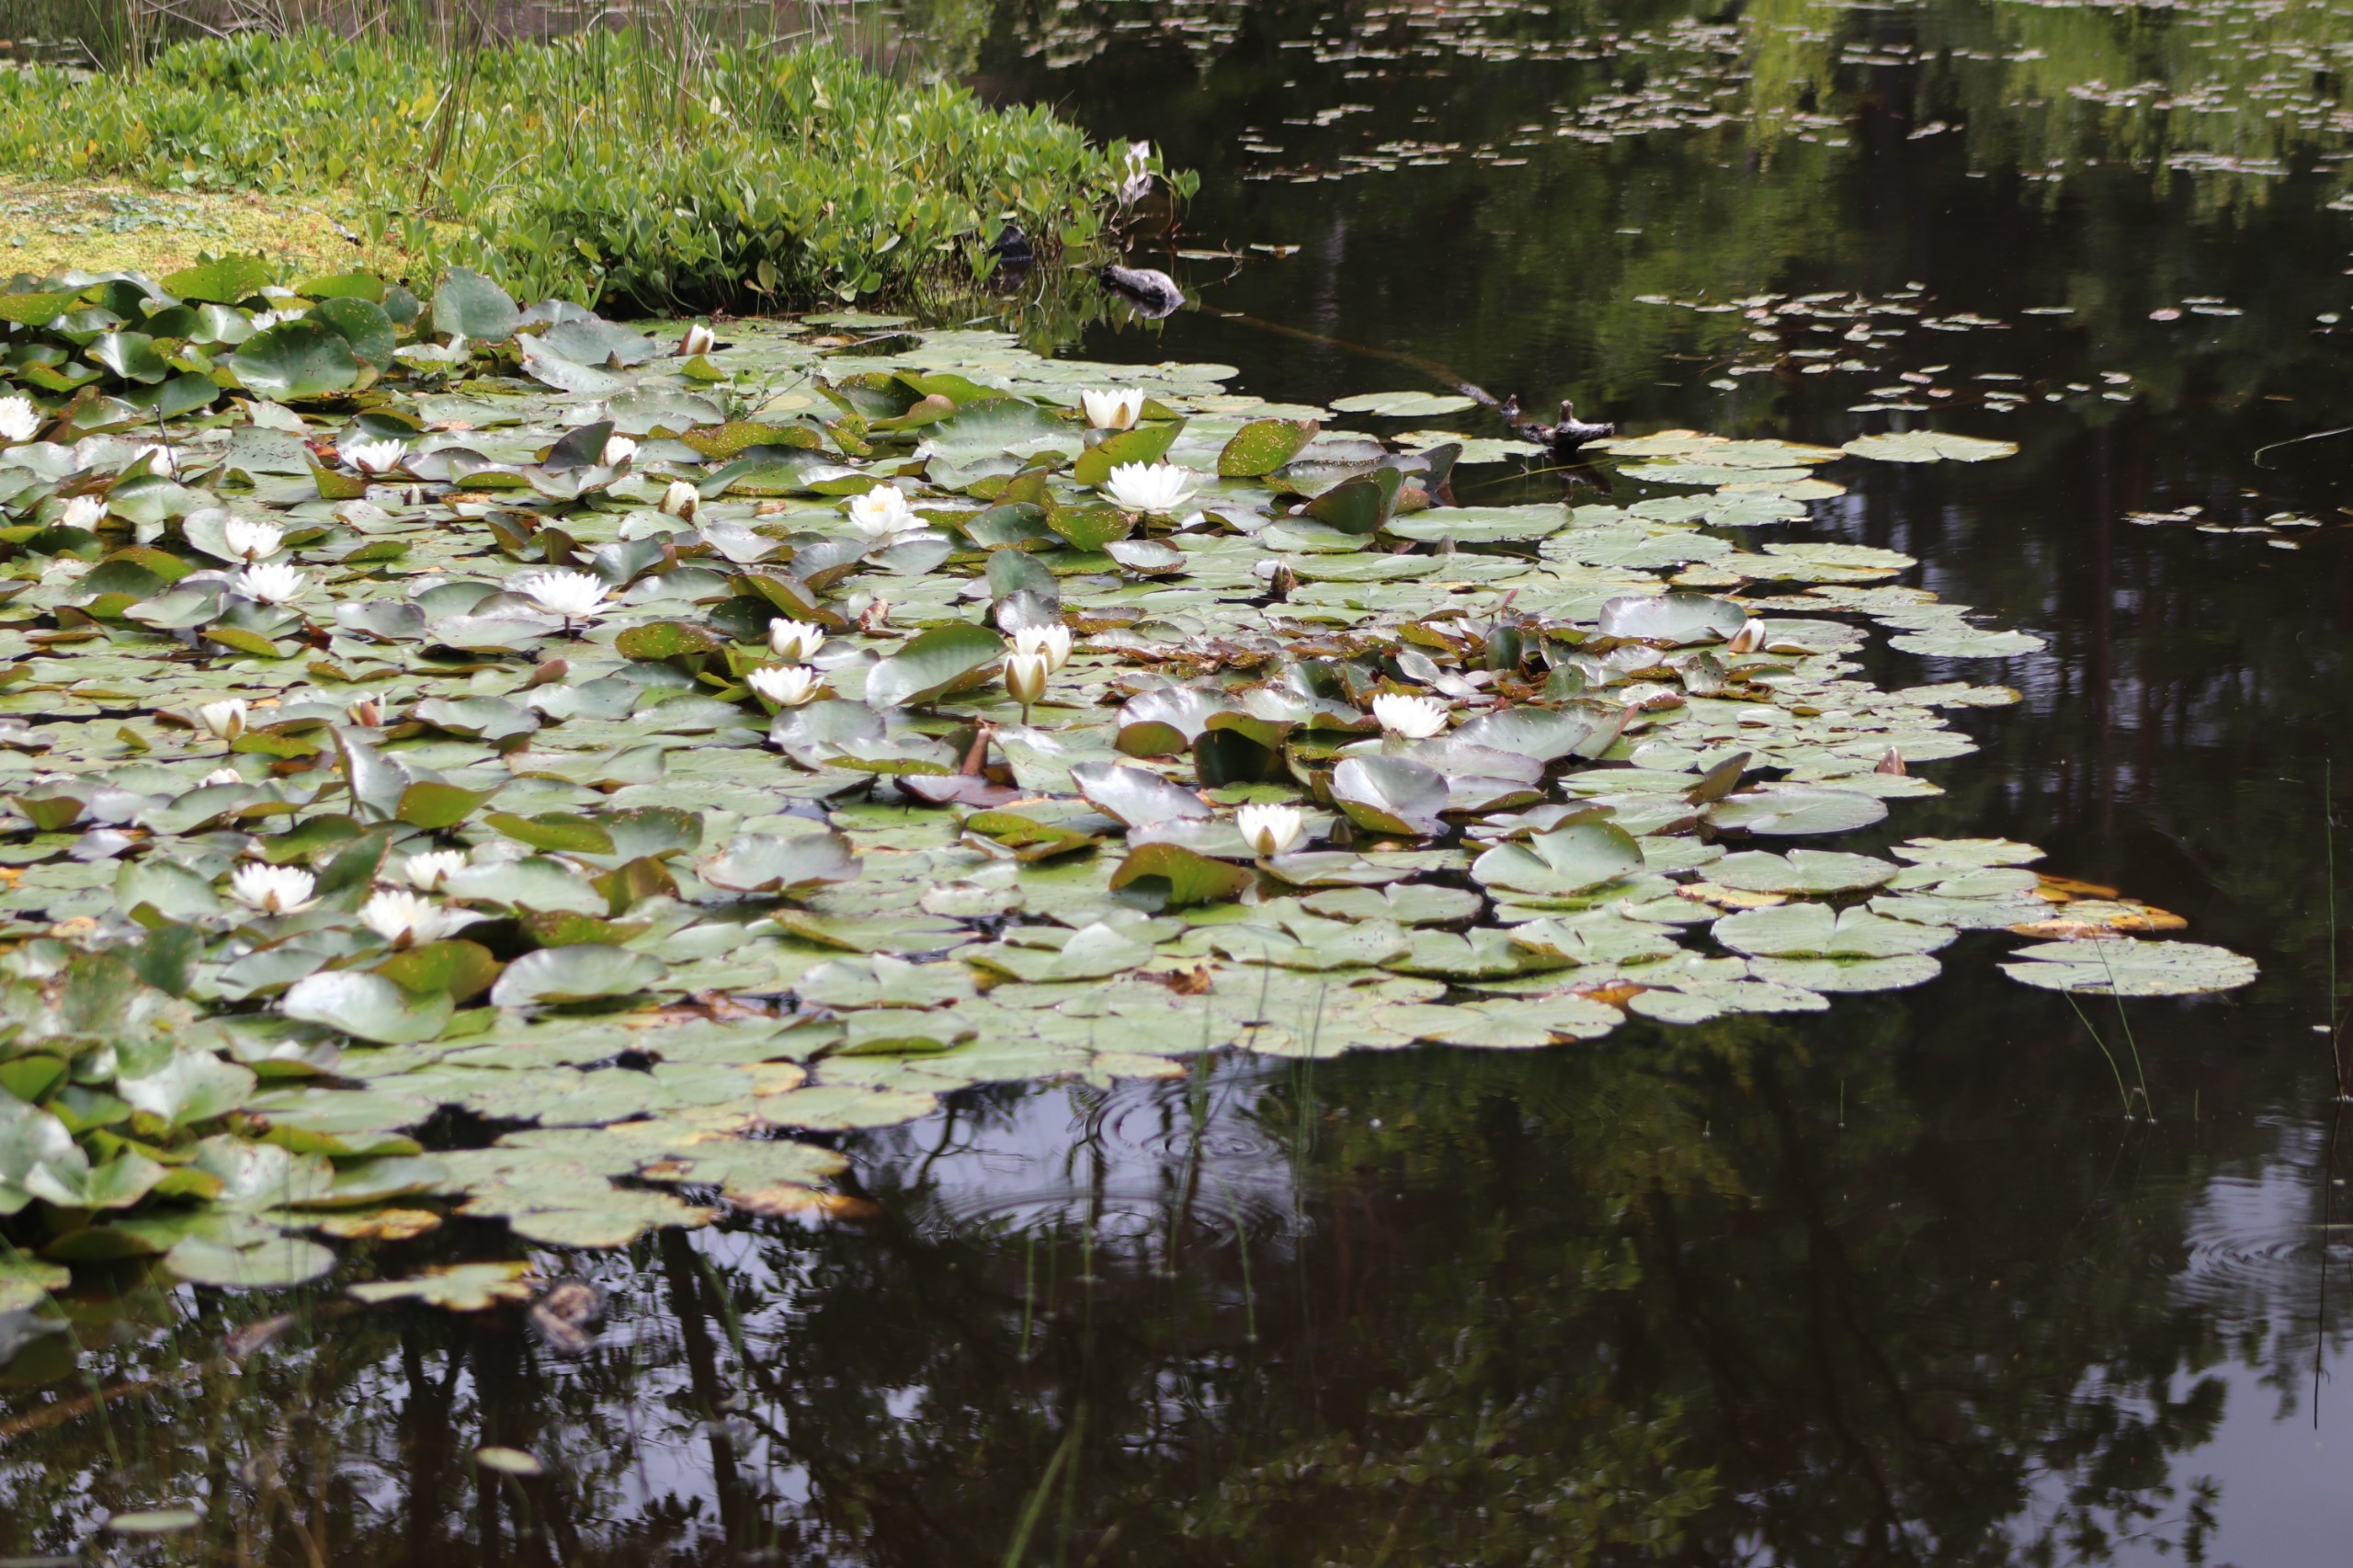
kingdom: Plantae
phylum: Tracheophyta
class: Magnoliopsida
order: Nymphaeales
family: Nymphaeaceae
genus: Nymphaea
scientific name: Nymphaea alba
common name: Hvid åkande
